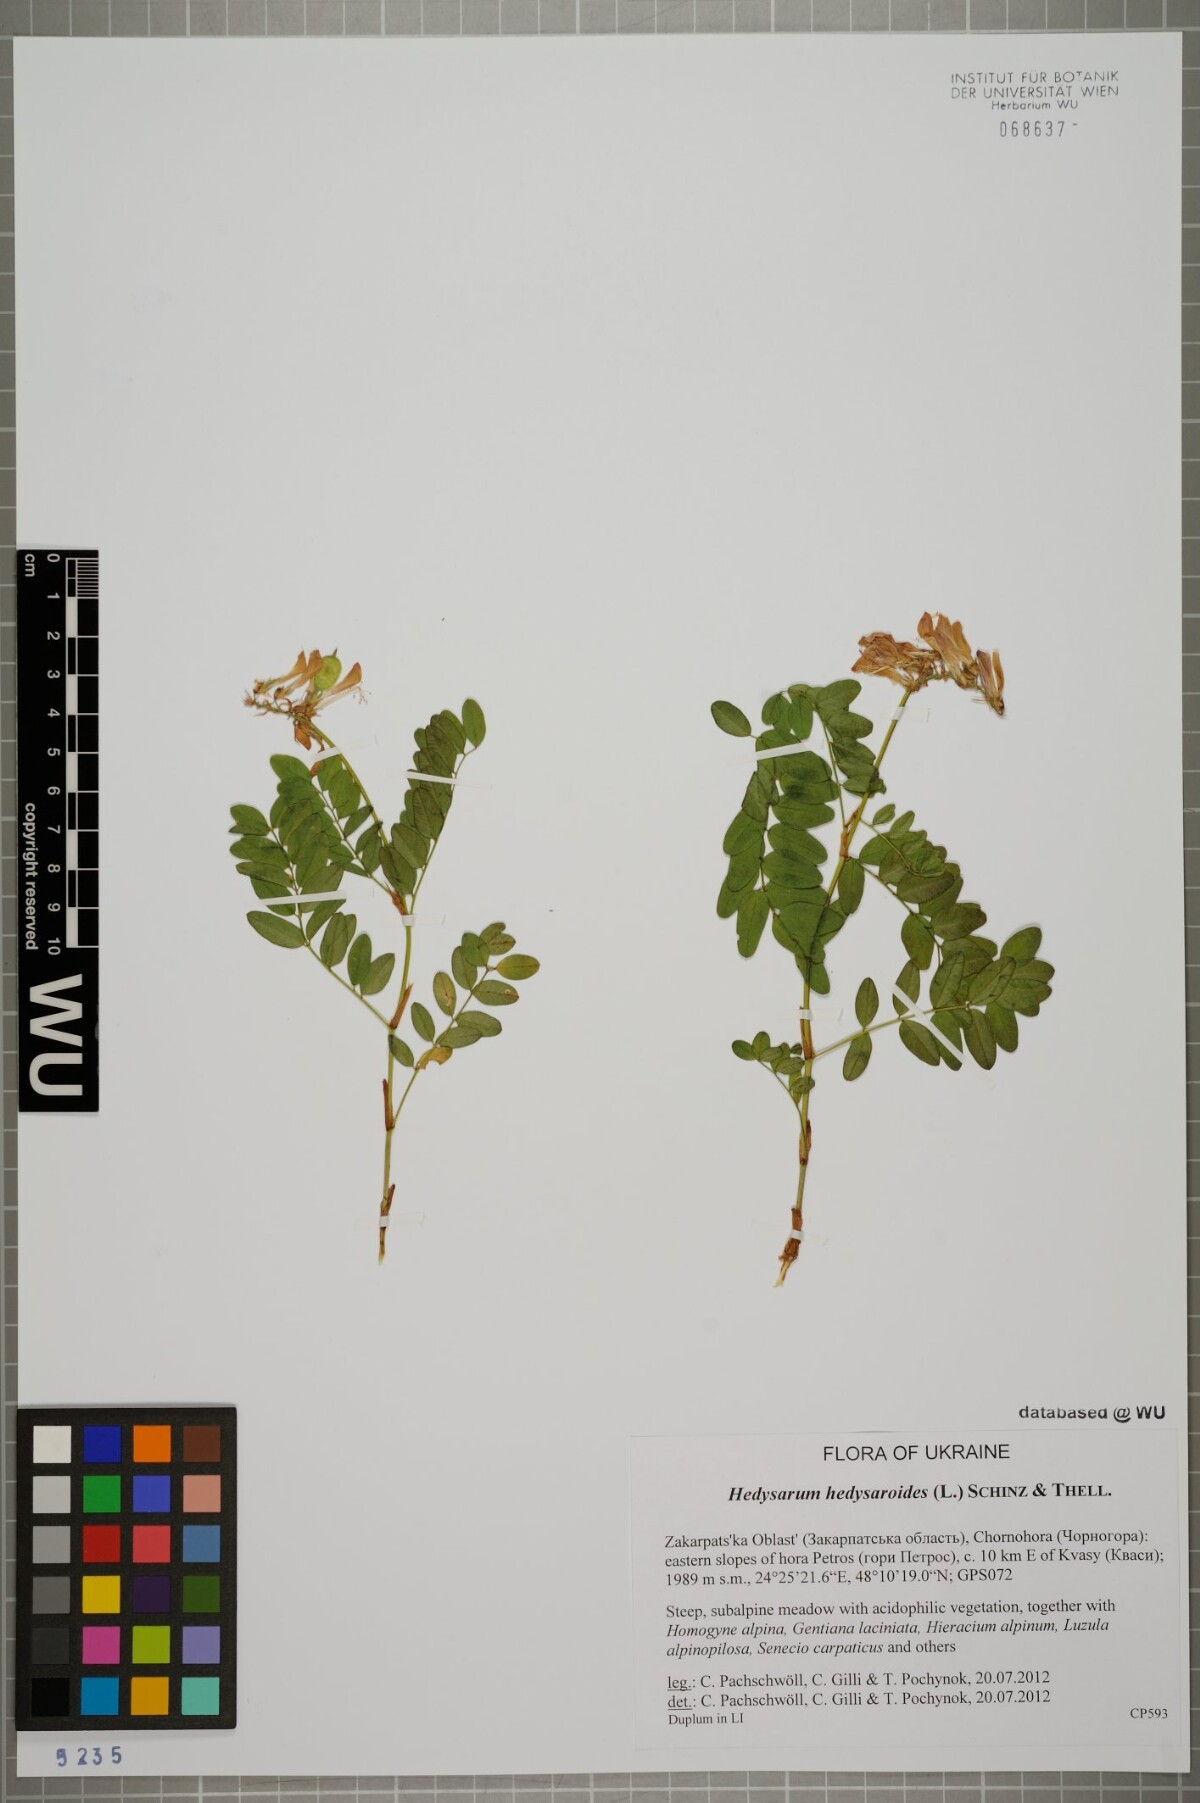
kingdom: Plantae
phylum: Tracheophyta
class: Magnoliopsida
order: Fabales
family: Fabaceae
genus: Hedysarum
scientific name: Hedysarum hedysaroides
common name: Alpine french-honeysuckle
